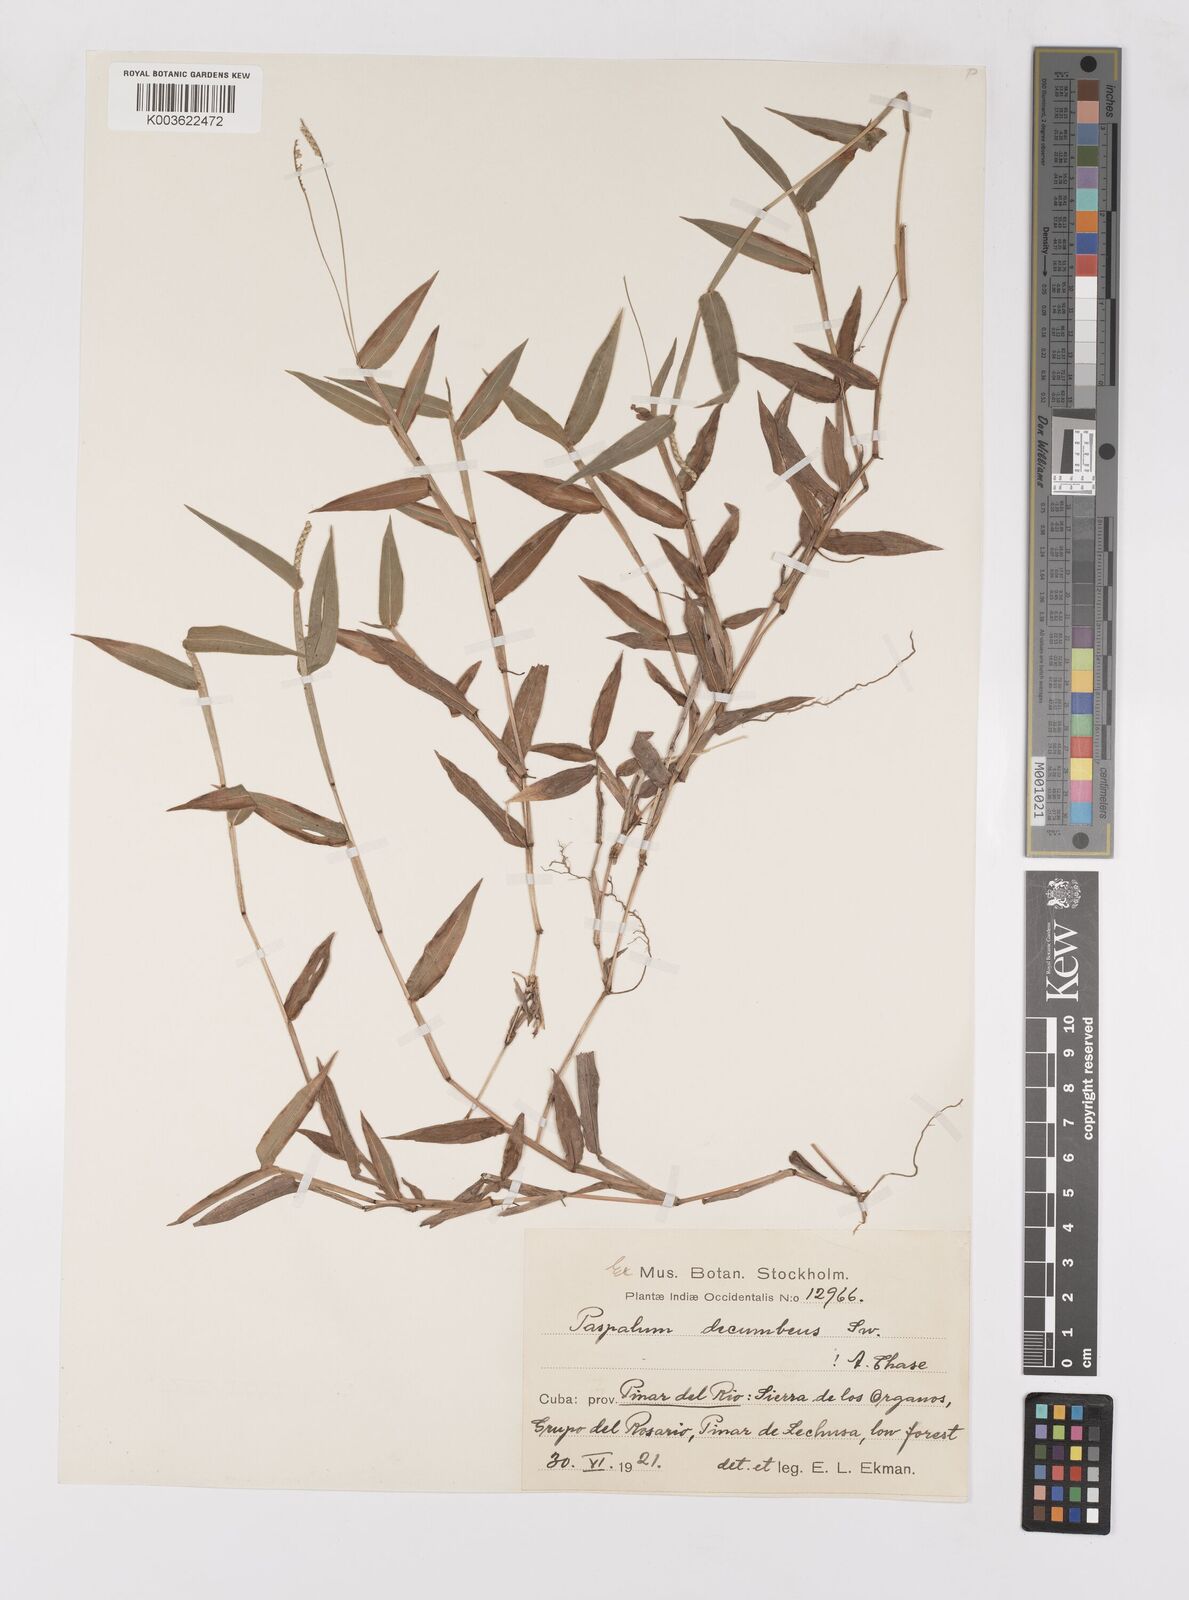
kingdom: Plantae
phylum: Tracheophyta
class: Liliopsida
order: Poales
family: Poaceae
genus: Paspalum
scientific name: Paspalum decumbens
